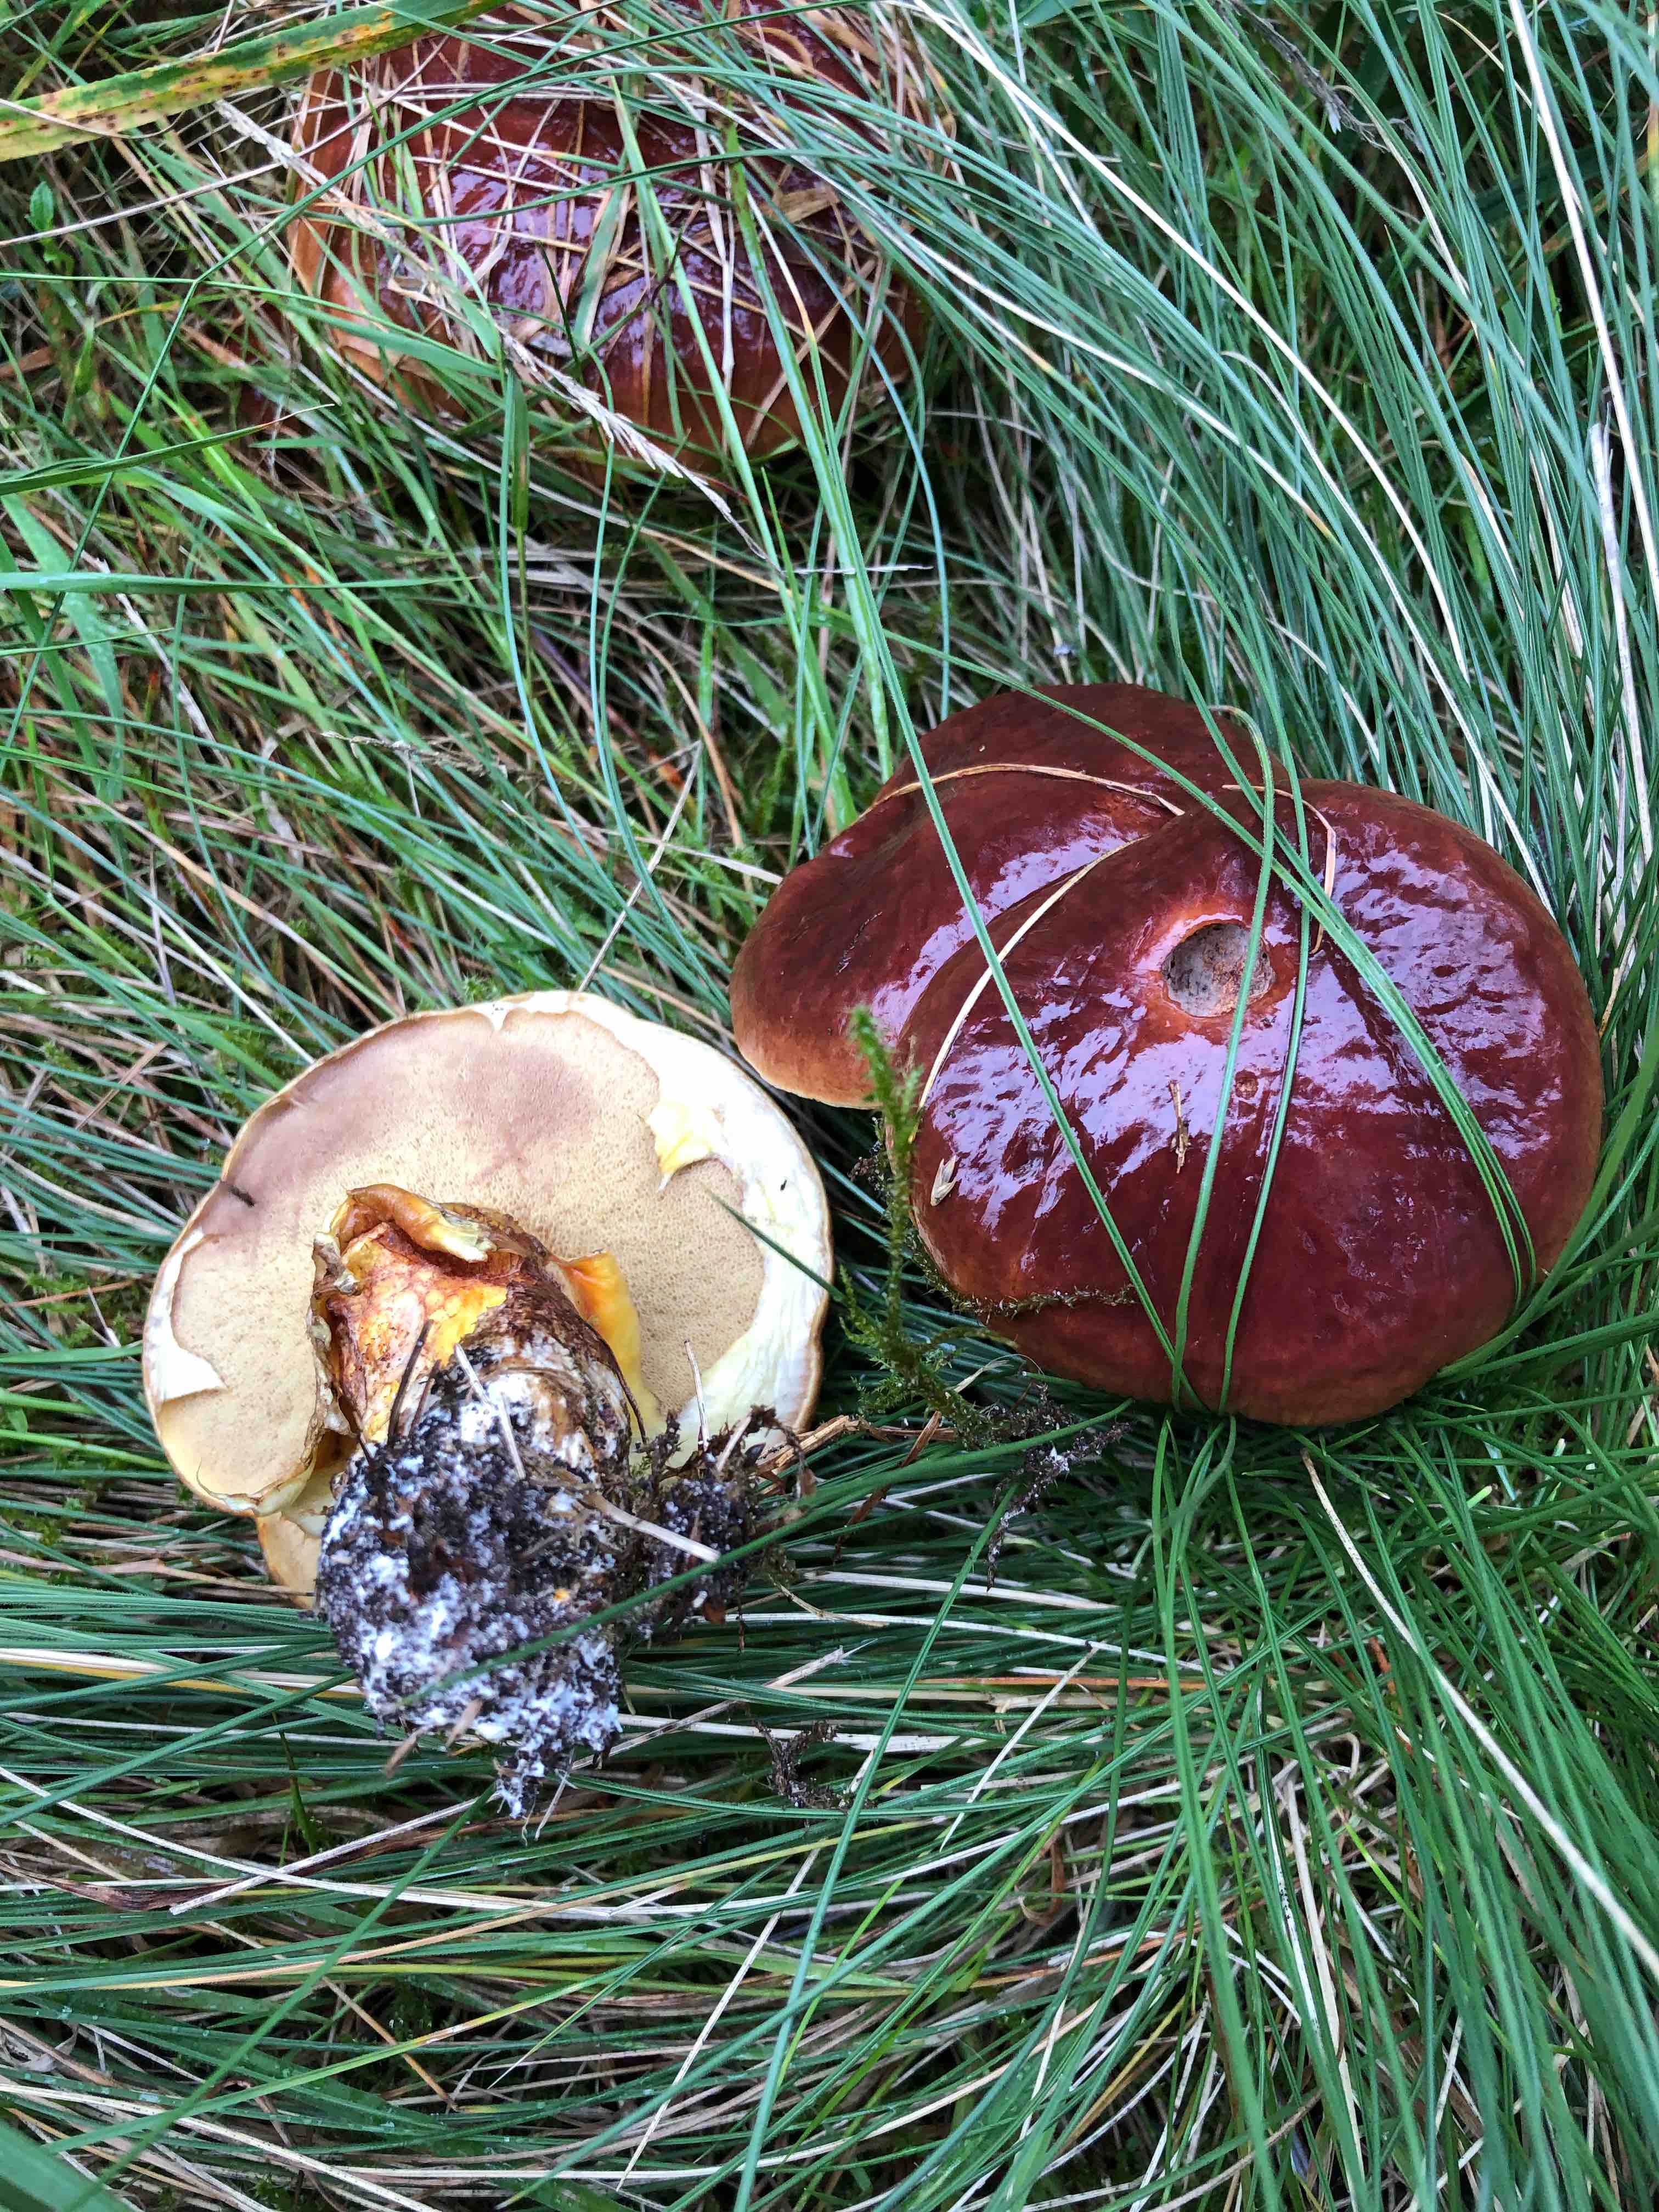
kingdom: Fungi
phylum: Basidiomycota
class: Agaricomycetes
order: Boletales
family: Suillaceae
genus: Suillus
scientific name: Suillus luteus
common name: brungul slimrørhat
